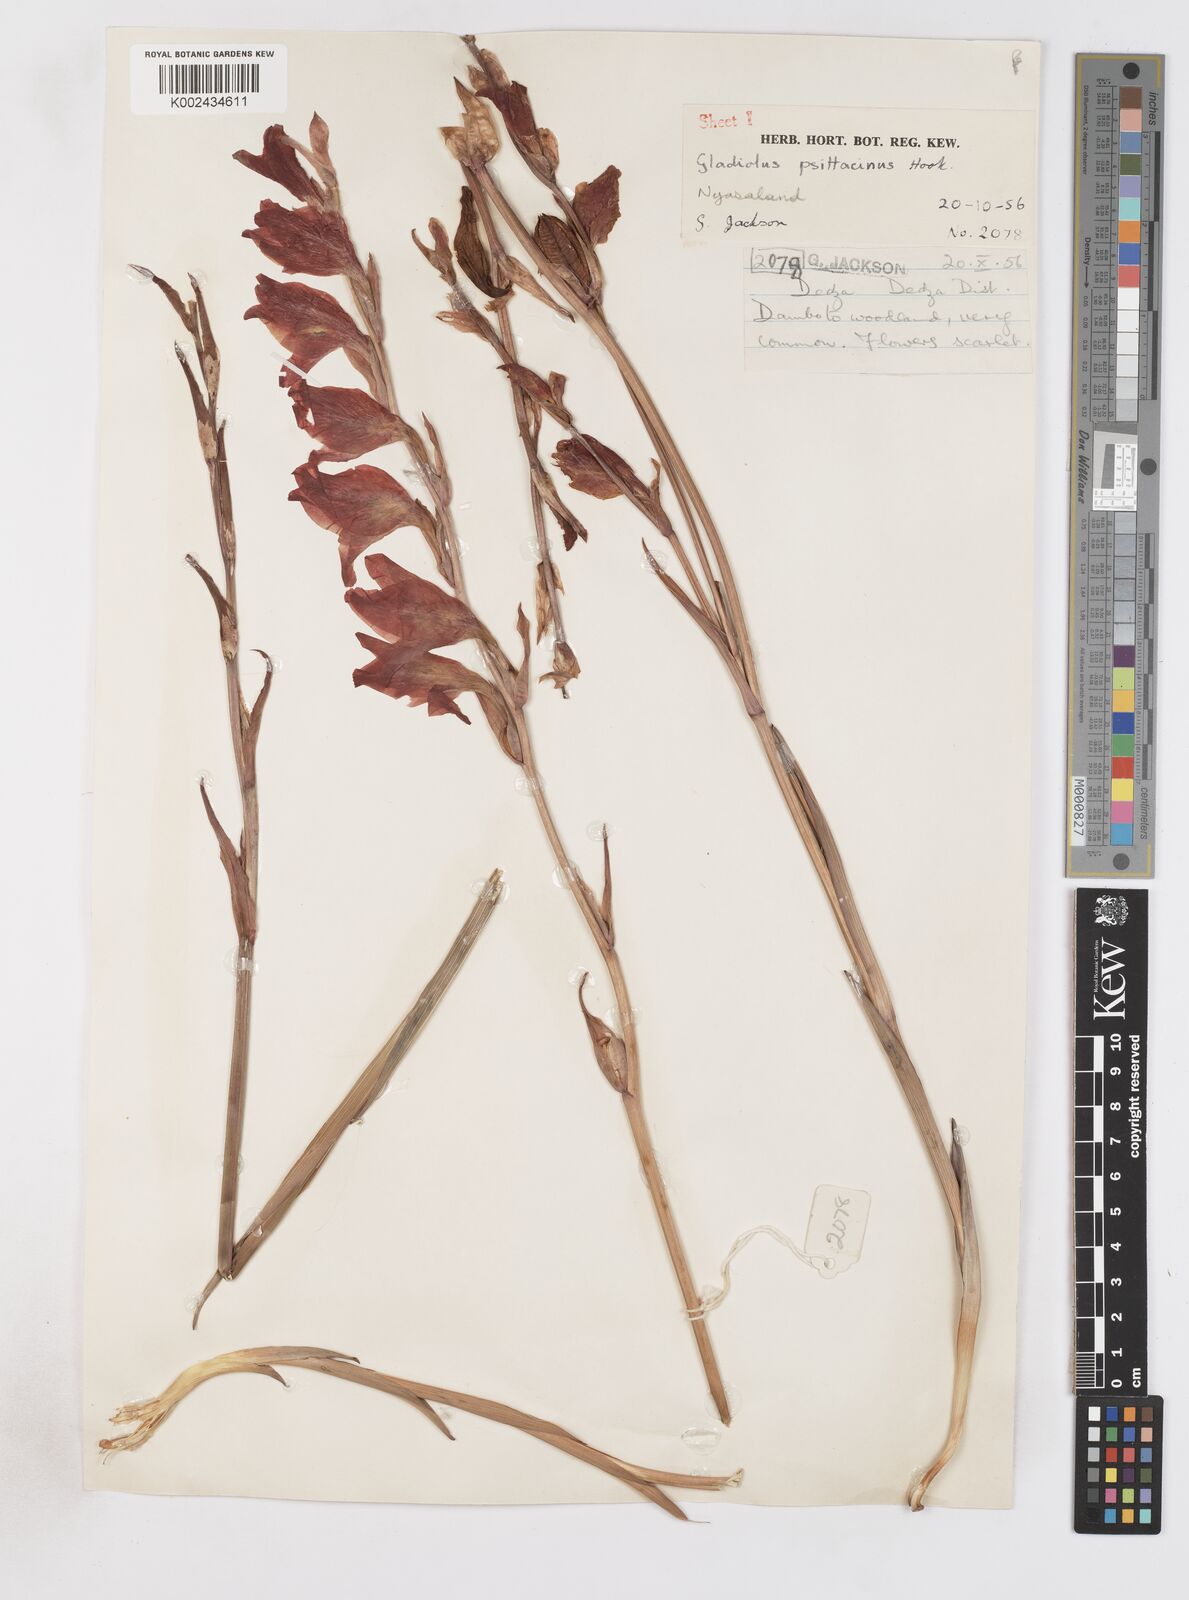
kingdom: Plantae
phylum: Tracheophyta
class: Liliopsida
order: Asparagales
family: Iridaceae
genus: Gladiolus
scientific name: Gladiolus melleri
